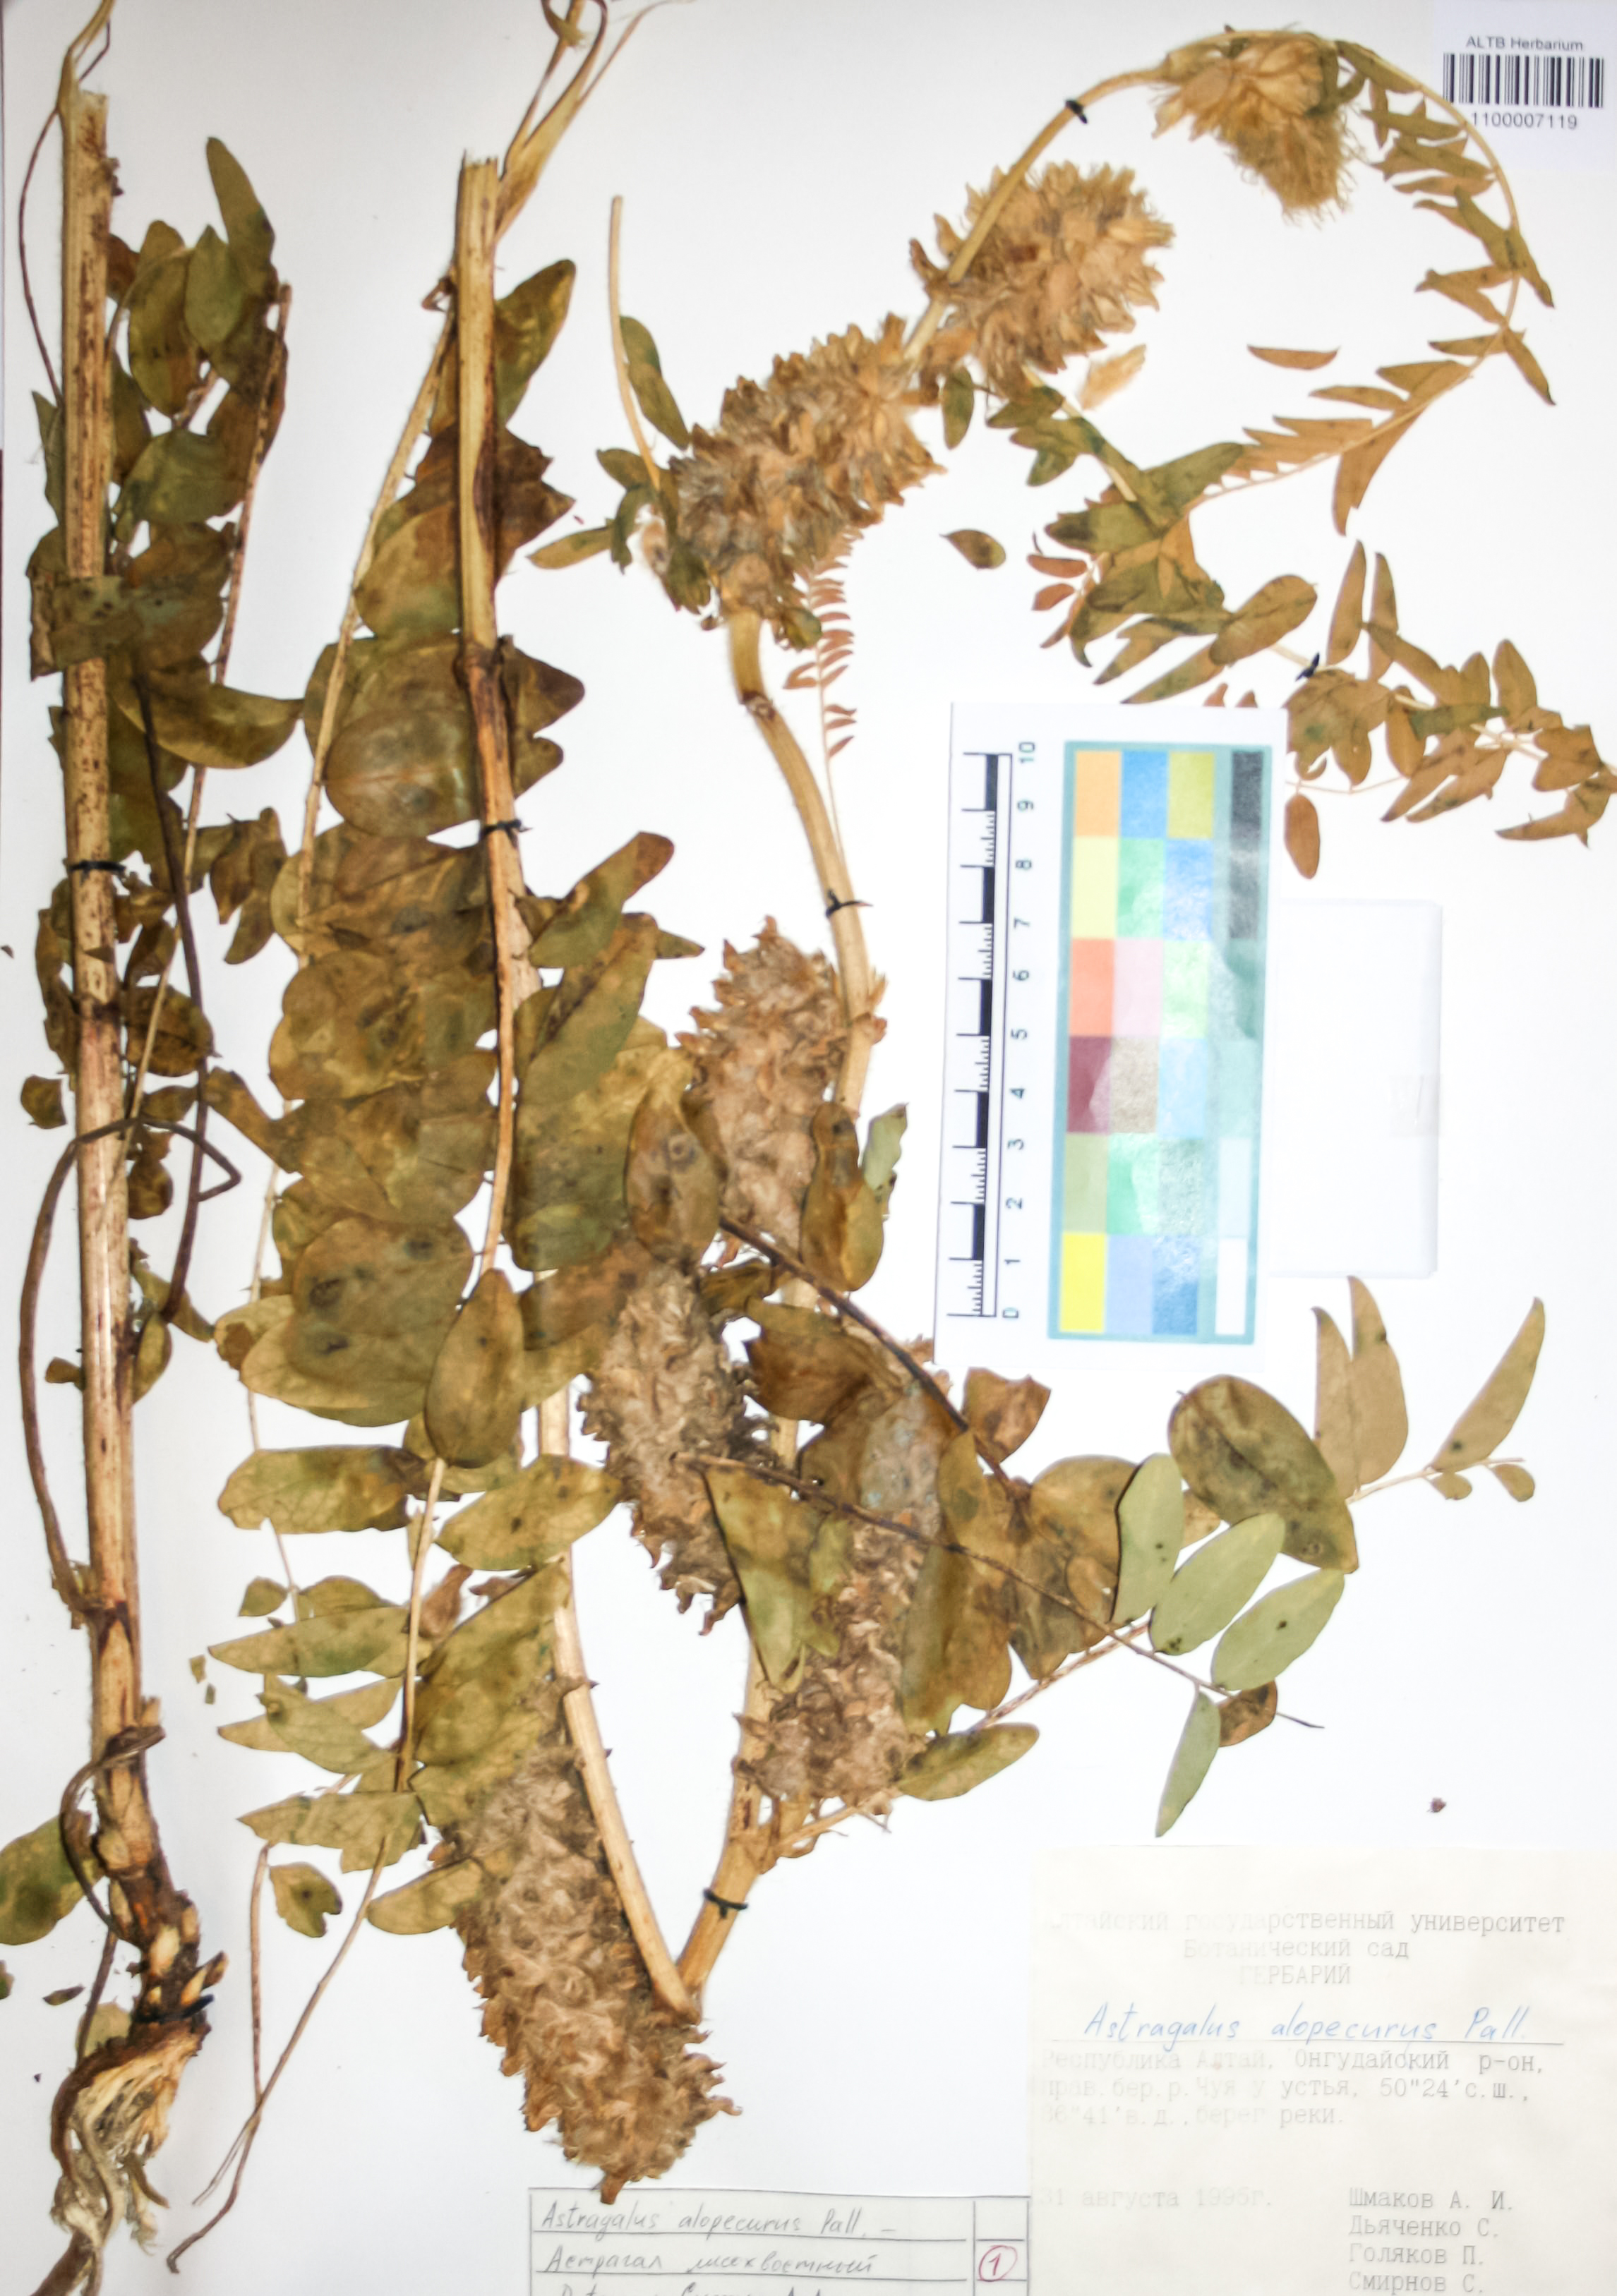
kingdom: Plantae
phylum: Tracheophyta
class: Magnoliopsida
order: Fabales
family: Fabaceae
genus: Astragalus
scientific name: Astragalus alopecurus
